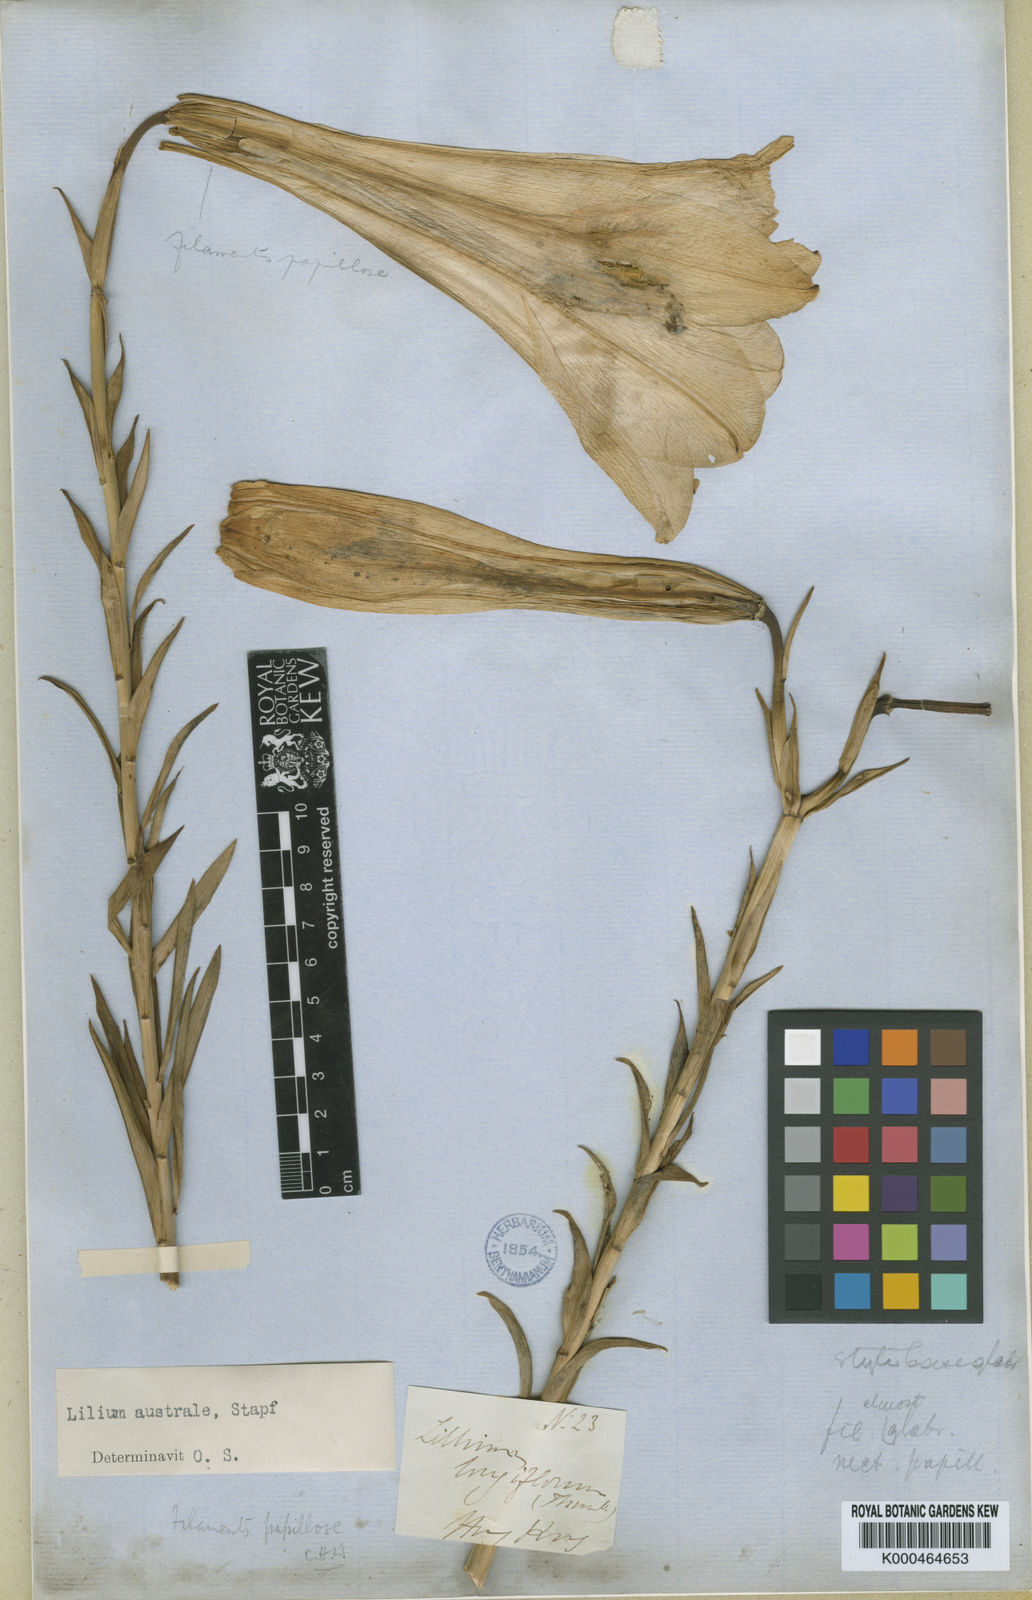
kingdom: Plantae
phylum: Tracheophyta
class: Liliopsida
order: Liliales
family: Liliaceae
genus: Lilium
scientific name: Lilium
